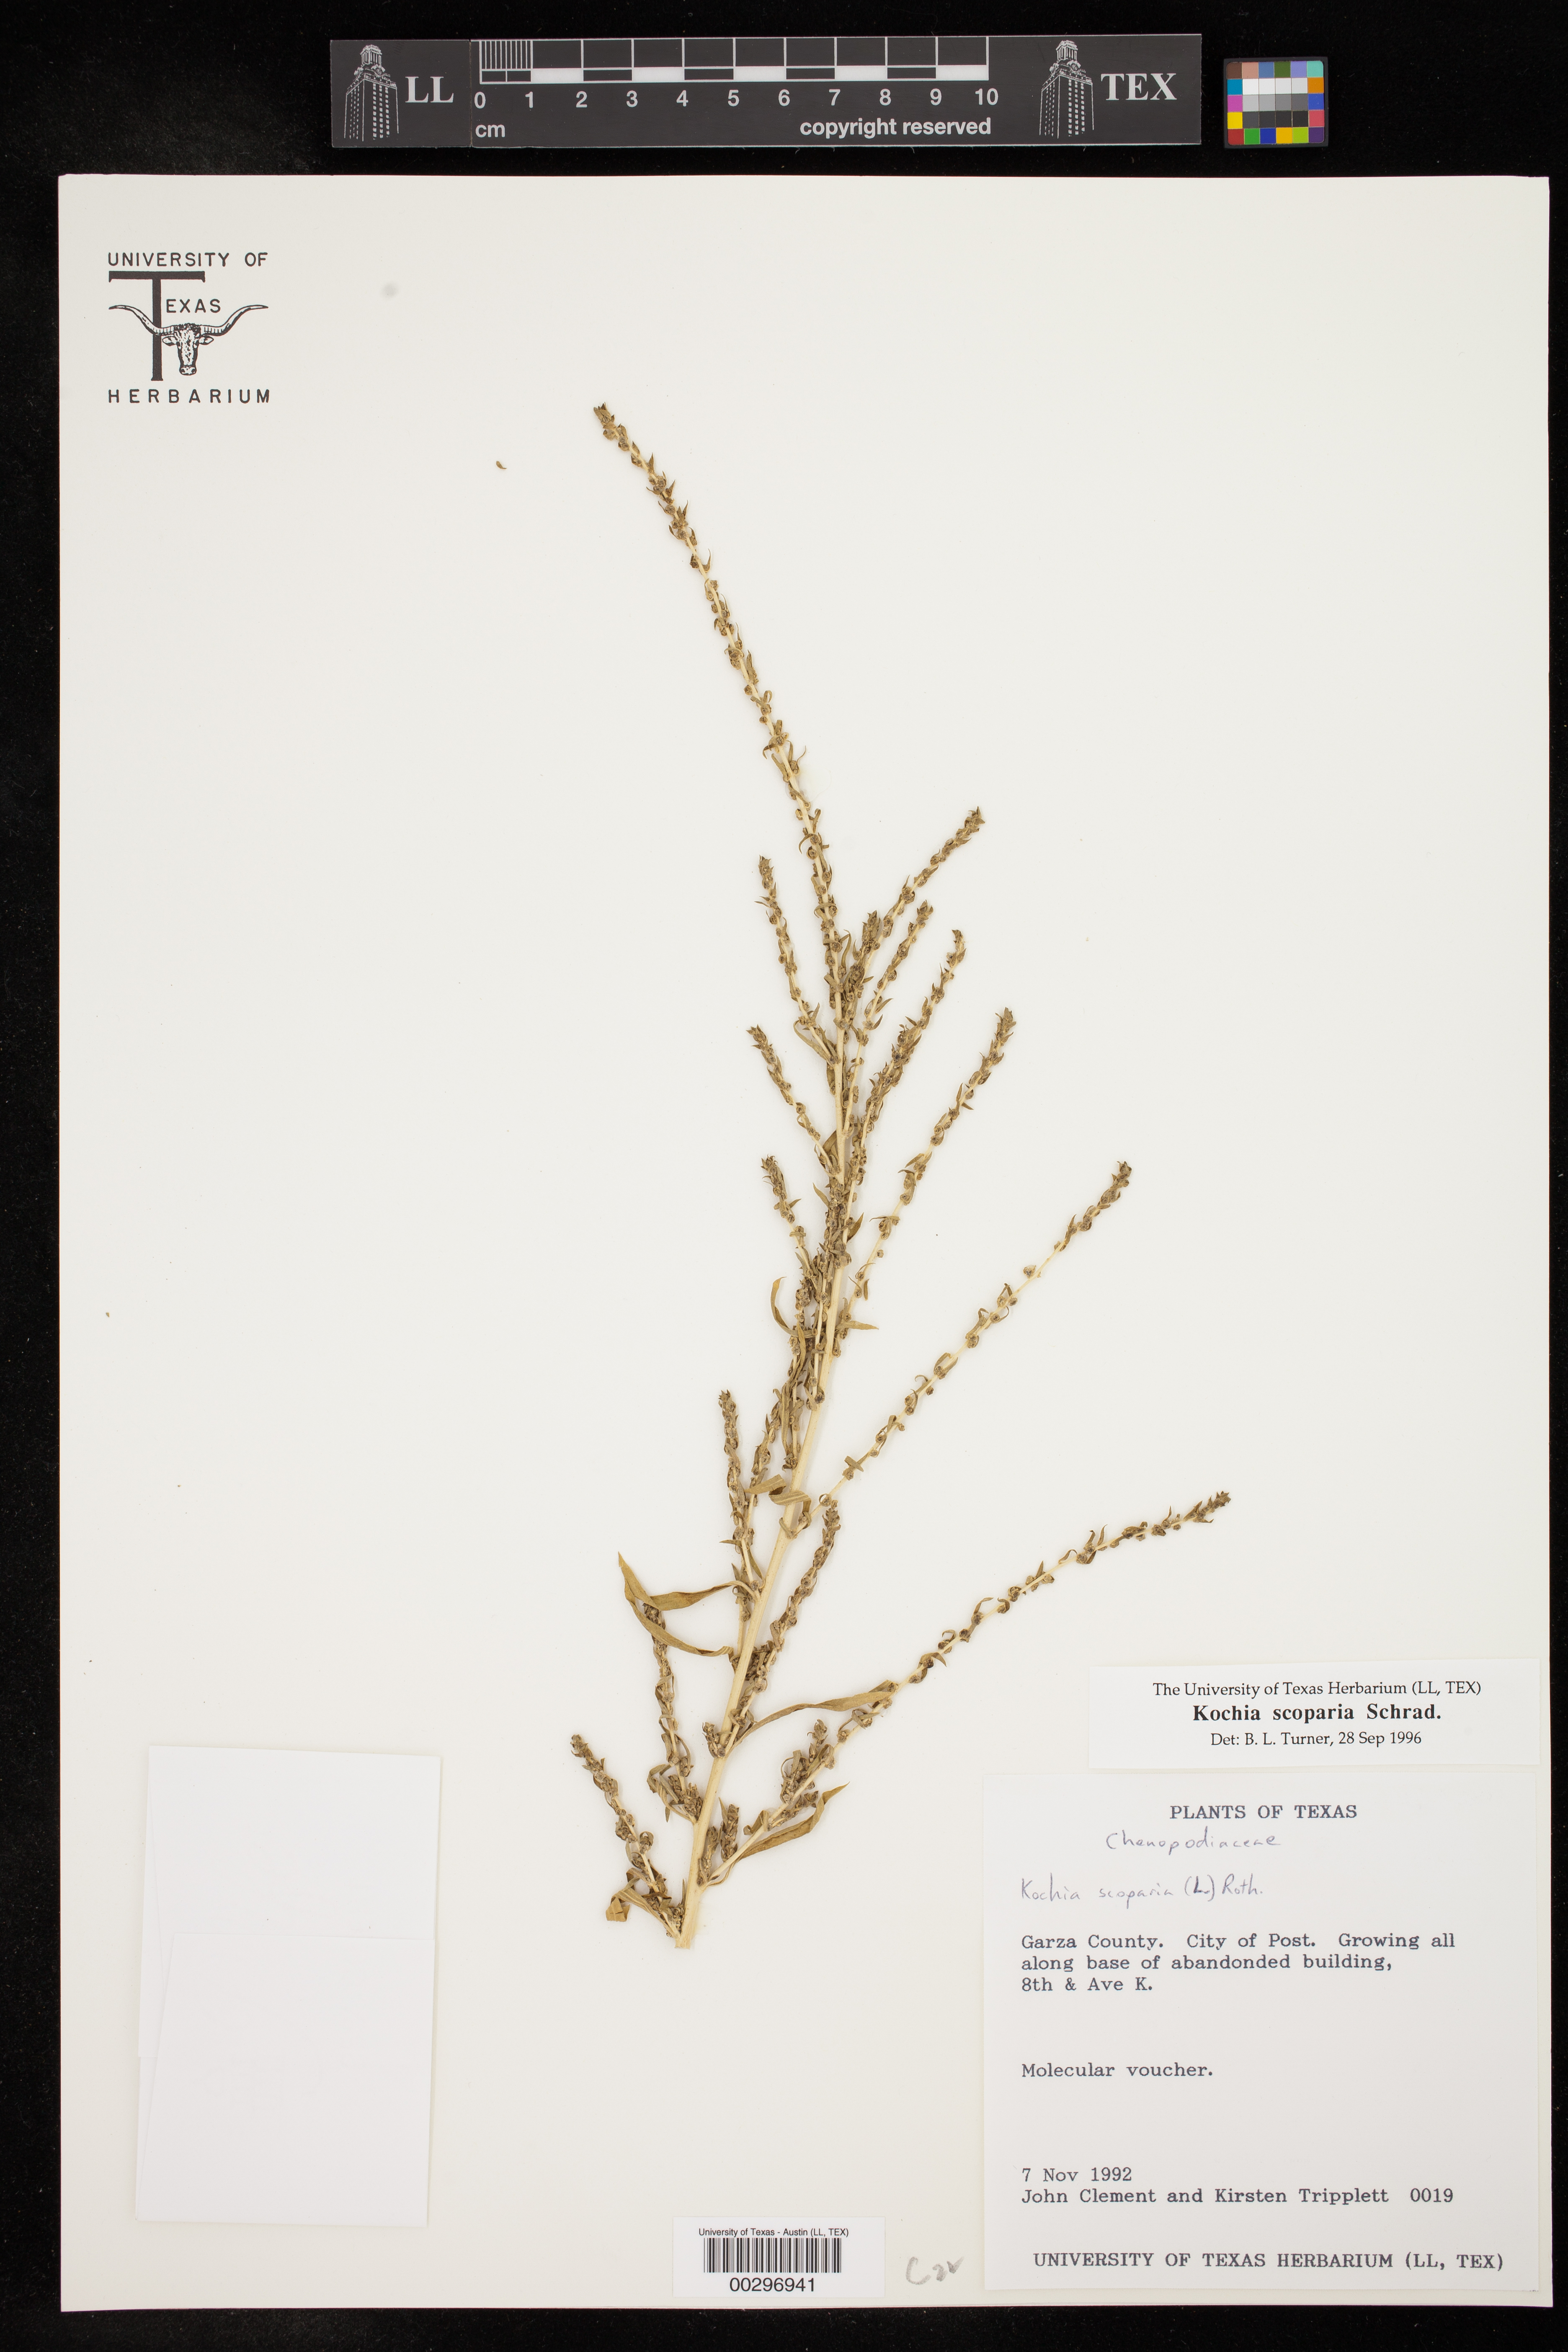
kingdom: Plantae
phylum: Tracheophyta
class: Magnoliopsida
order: Caryophyllales
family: Amaranthaceae
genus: Bassia
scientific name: Bassia scoparia
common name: Belvedere
